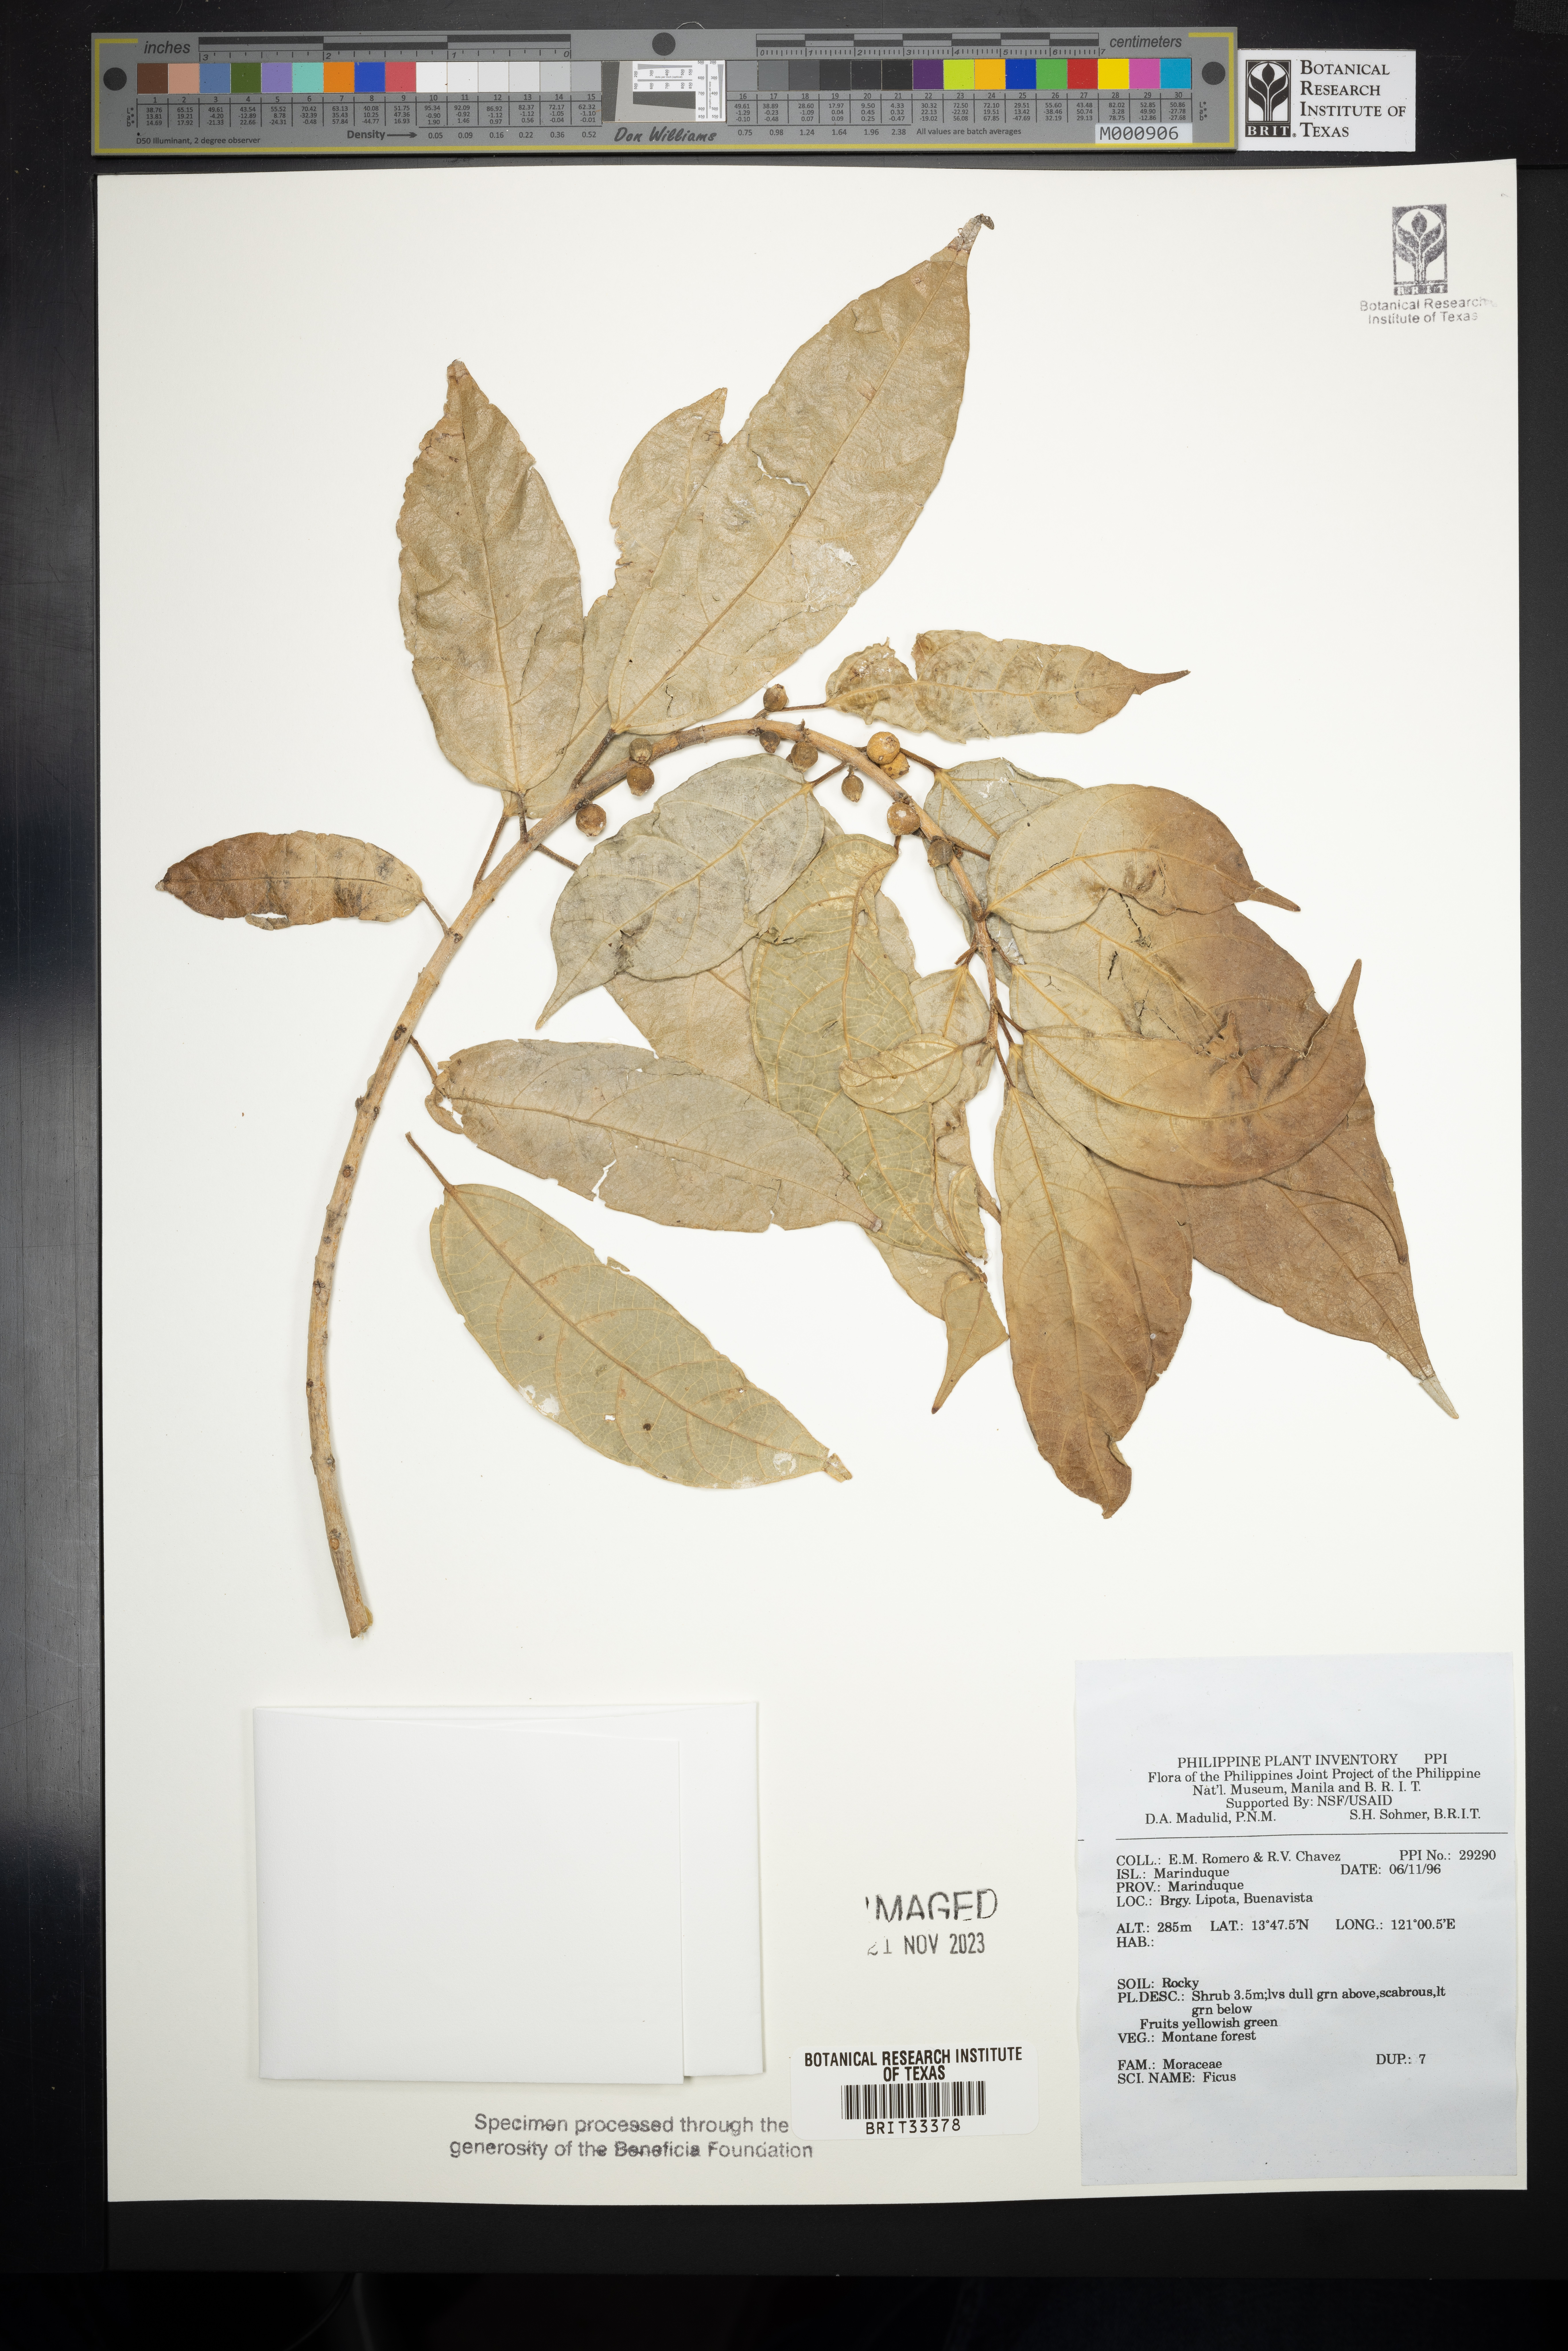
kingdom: Plantae
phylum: Tracheophyta
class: Magnoliopsida
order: Rosales
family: Moraceae
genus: Ficus
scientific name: Ficus
